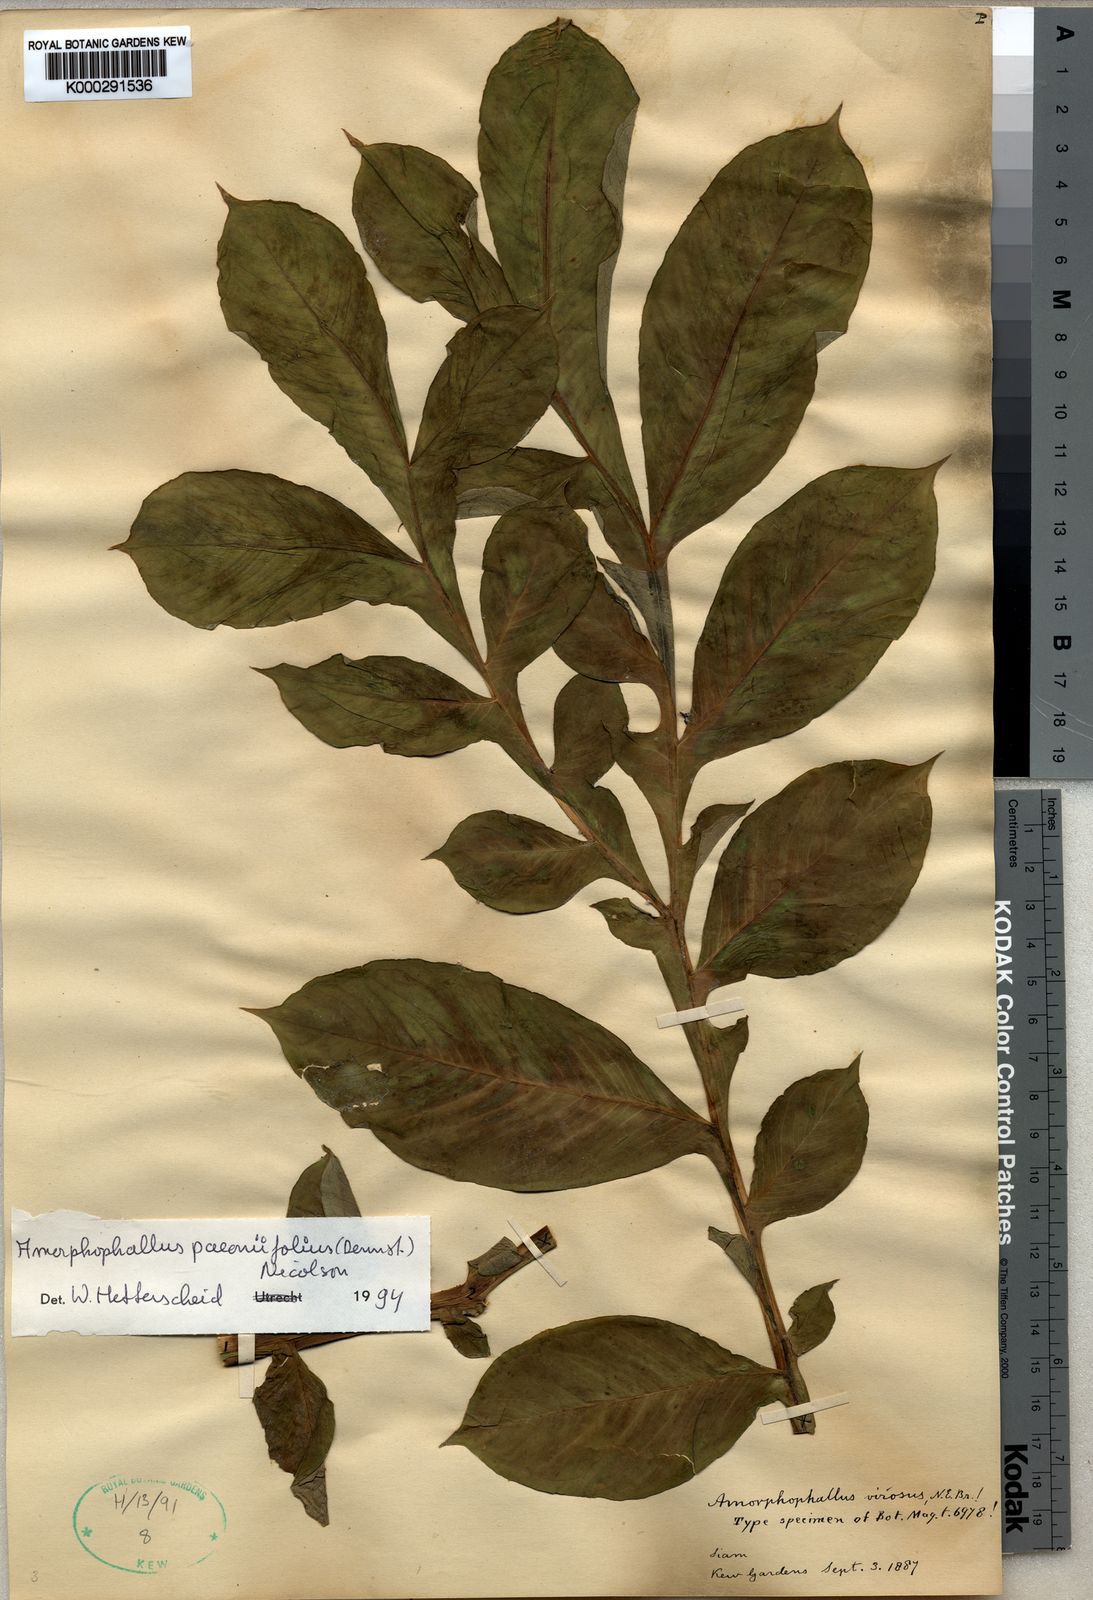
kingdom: Plantae
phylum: Tracheophyta
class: Liliopsida
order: Alismatales
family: Araceae
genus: Amorphophallus
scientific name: Amorphophallus paeoniifolius
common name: Telinga-potato
